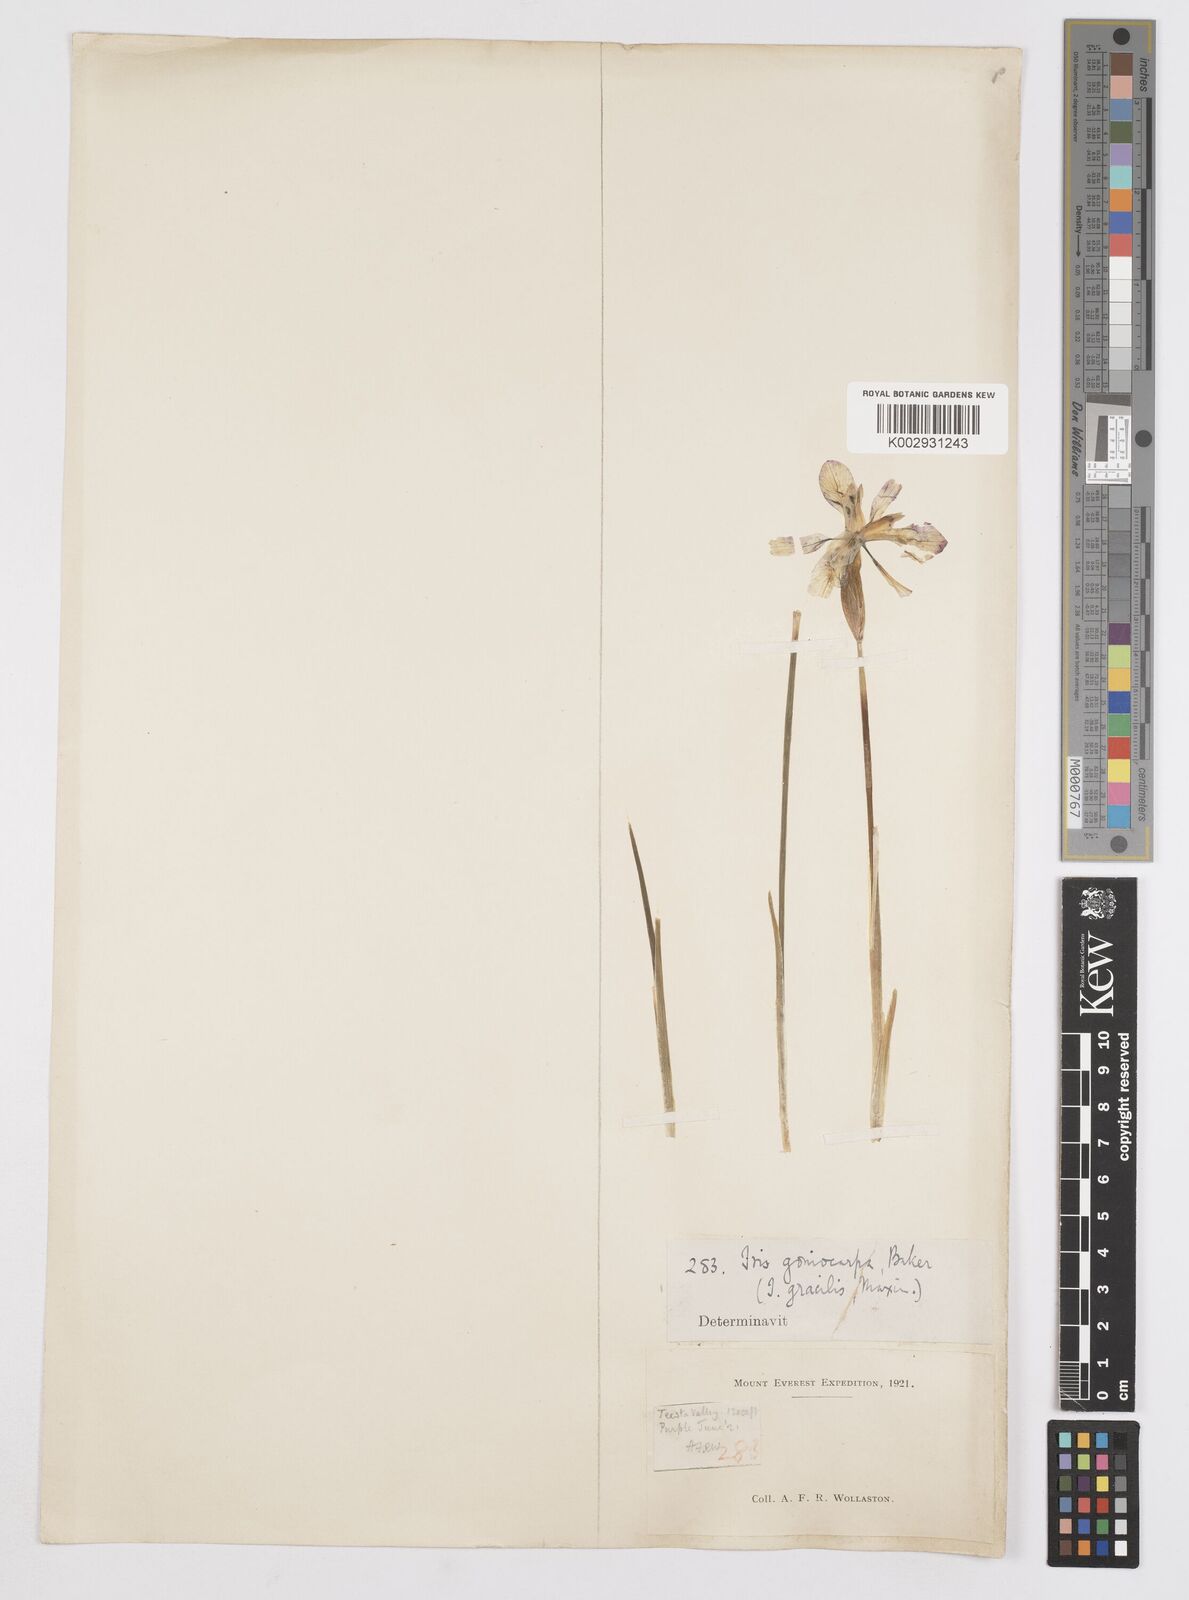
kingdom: Plantae
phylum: Tracheophyta
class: Liliopsida
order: Asparagales
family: Iridaceae
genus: Iris
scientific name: Iris goniocarpa
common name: Angular-fruit iris
